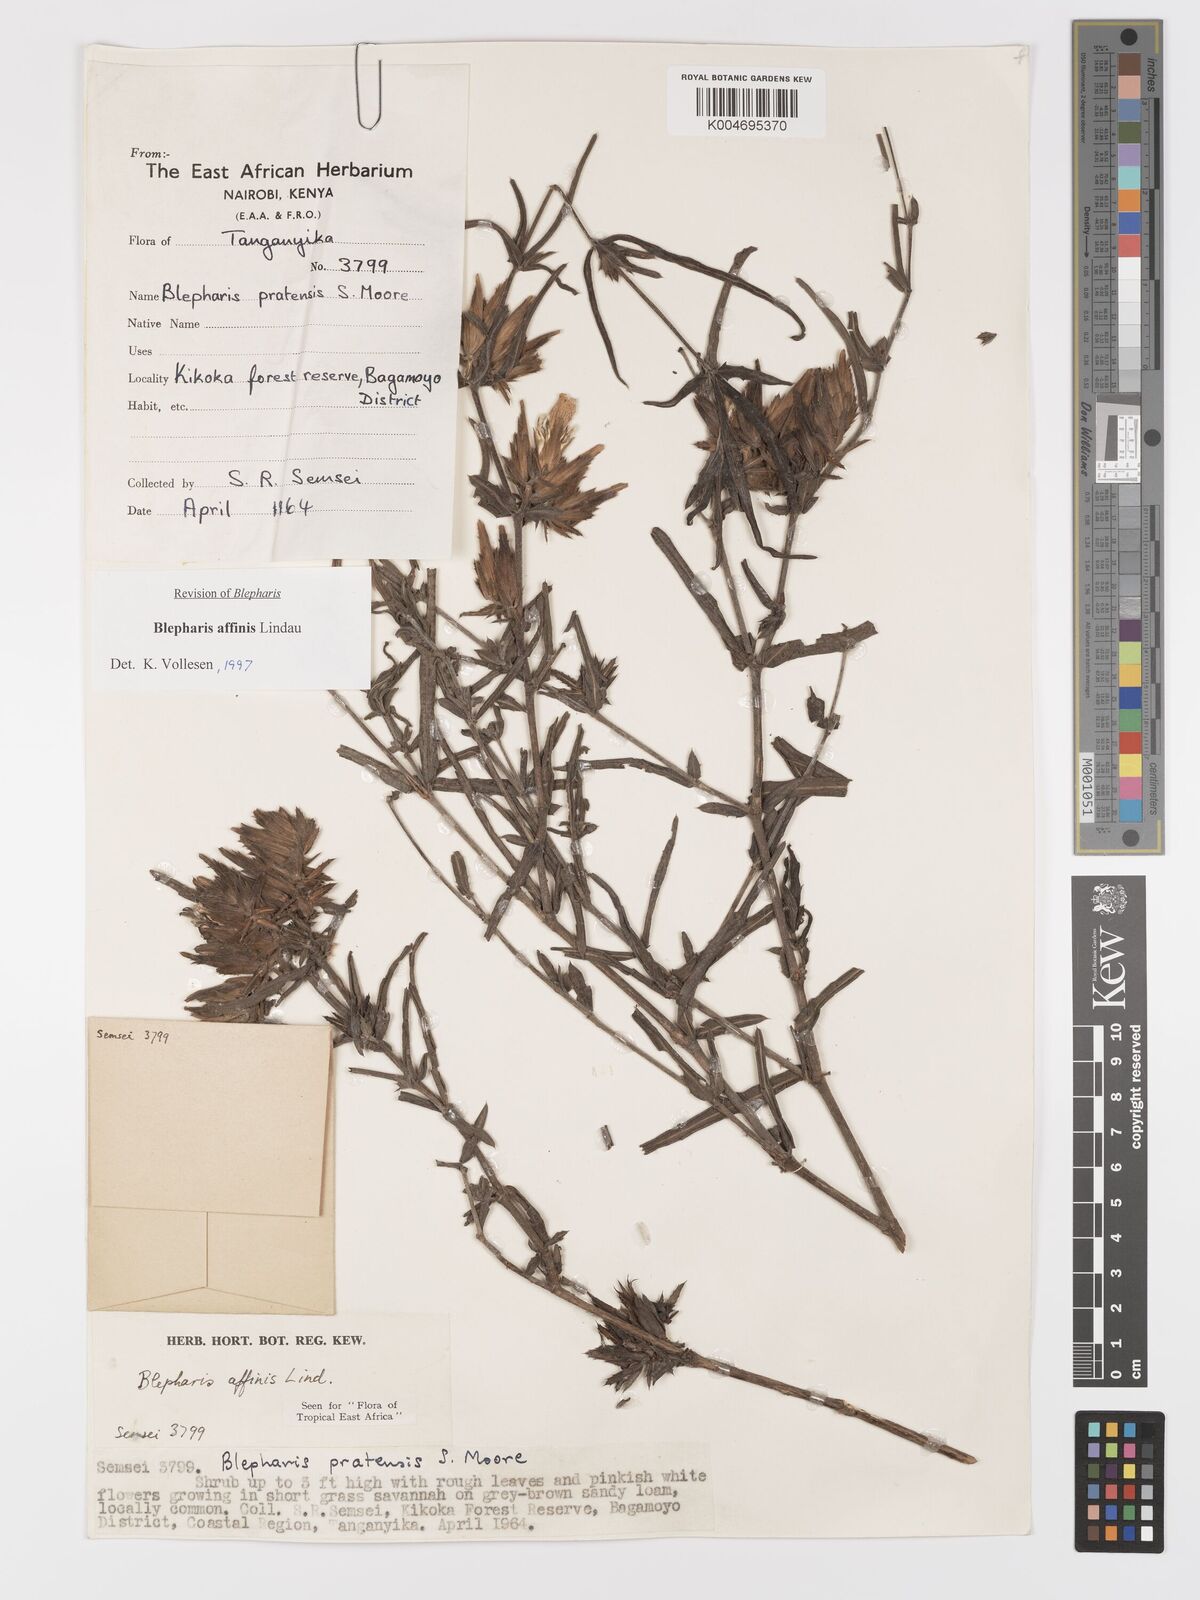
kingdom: Plantae
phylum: Tracheophyta
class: Magnoliopsida
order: Lamiales
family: Acanthaceae
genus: Blepharis
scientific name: Blepharis affinis
